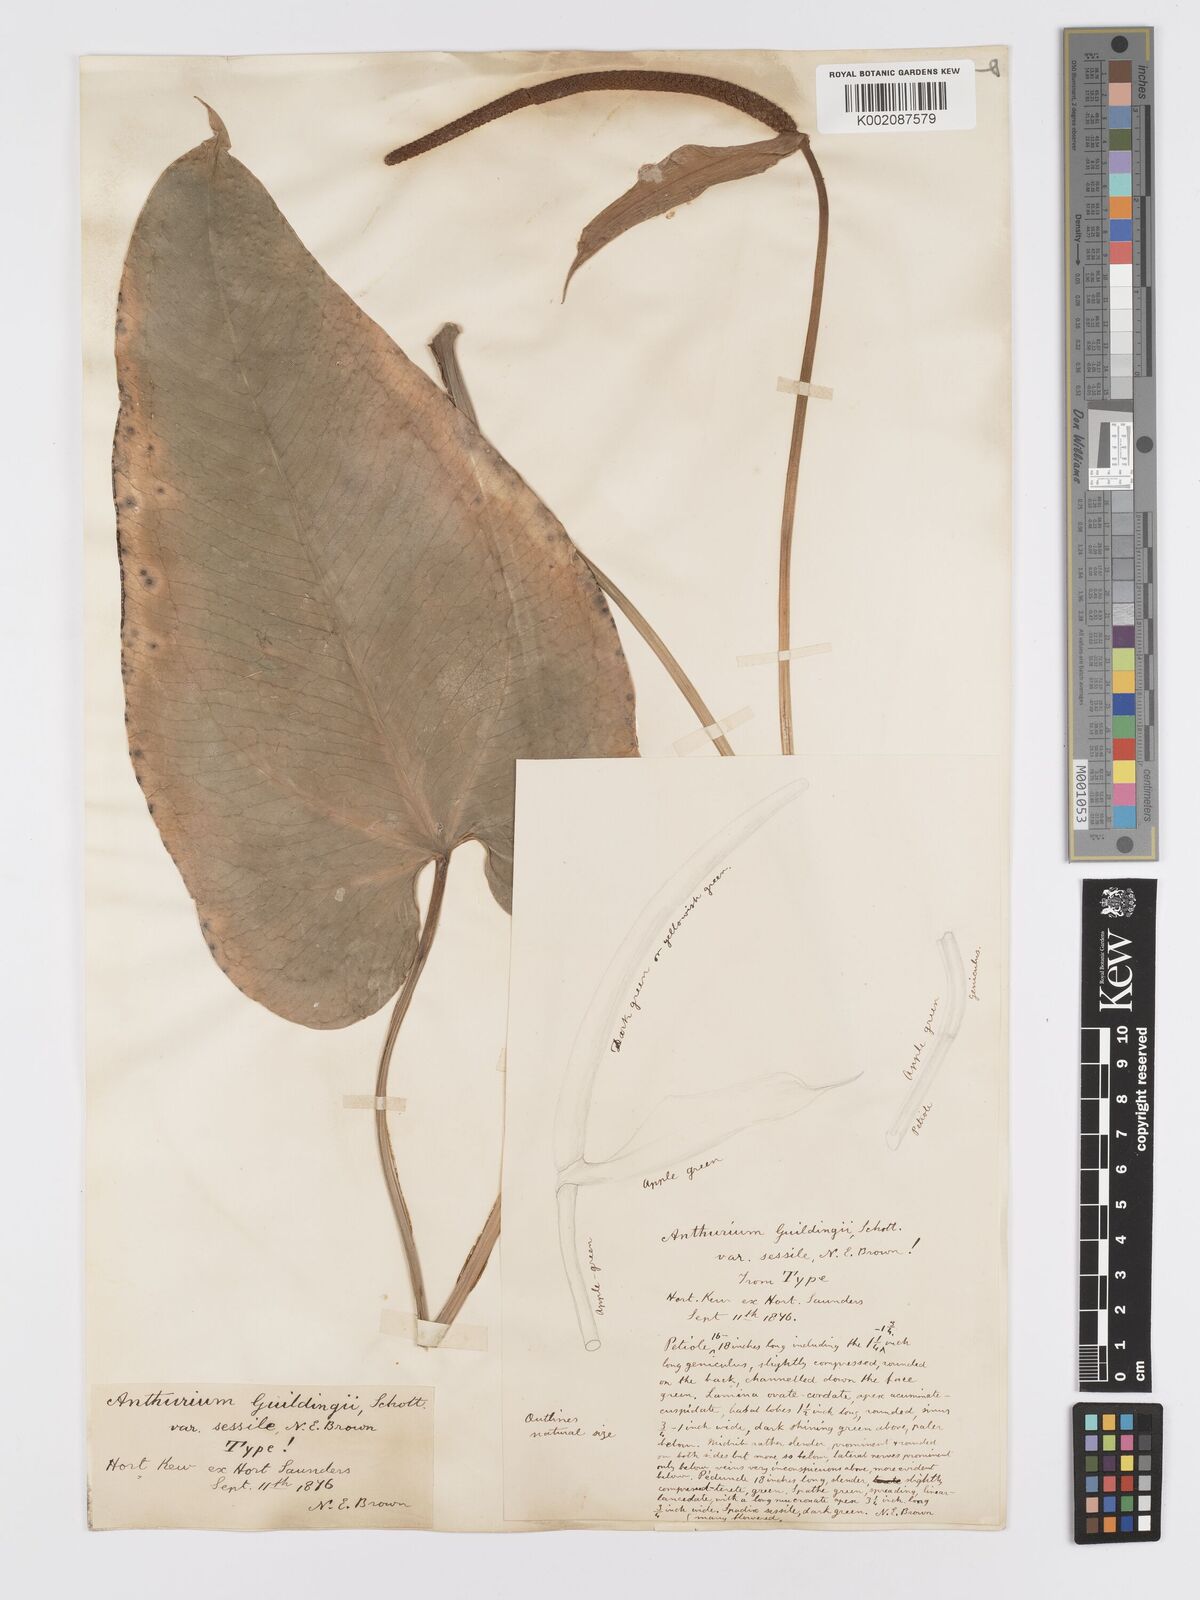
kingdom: Plantae
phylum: Tracheophyta
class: Liliopsida
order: Alismatales
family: Araceae
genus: Anthurium
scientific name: Anthurium cordatum
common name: Monkey tail
